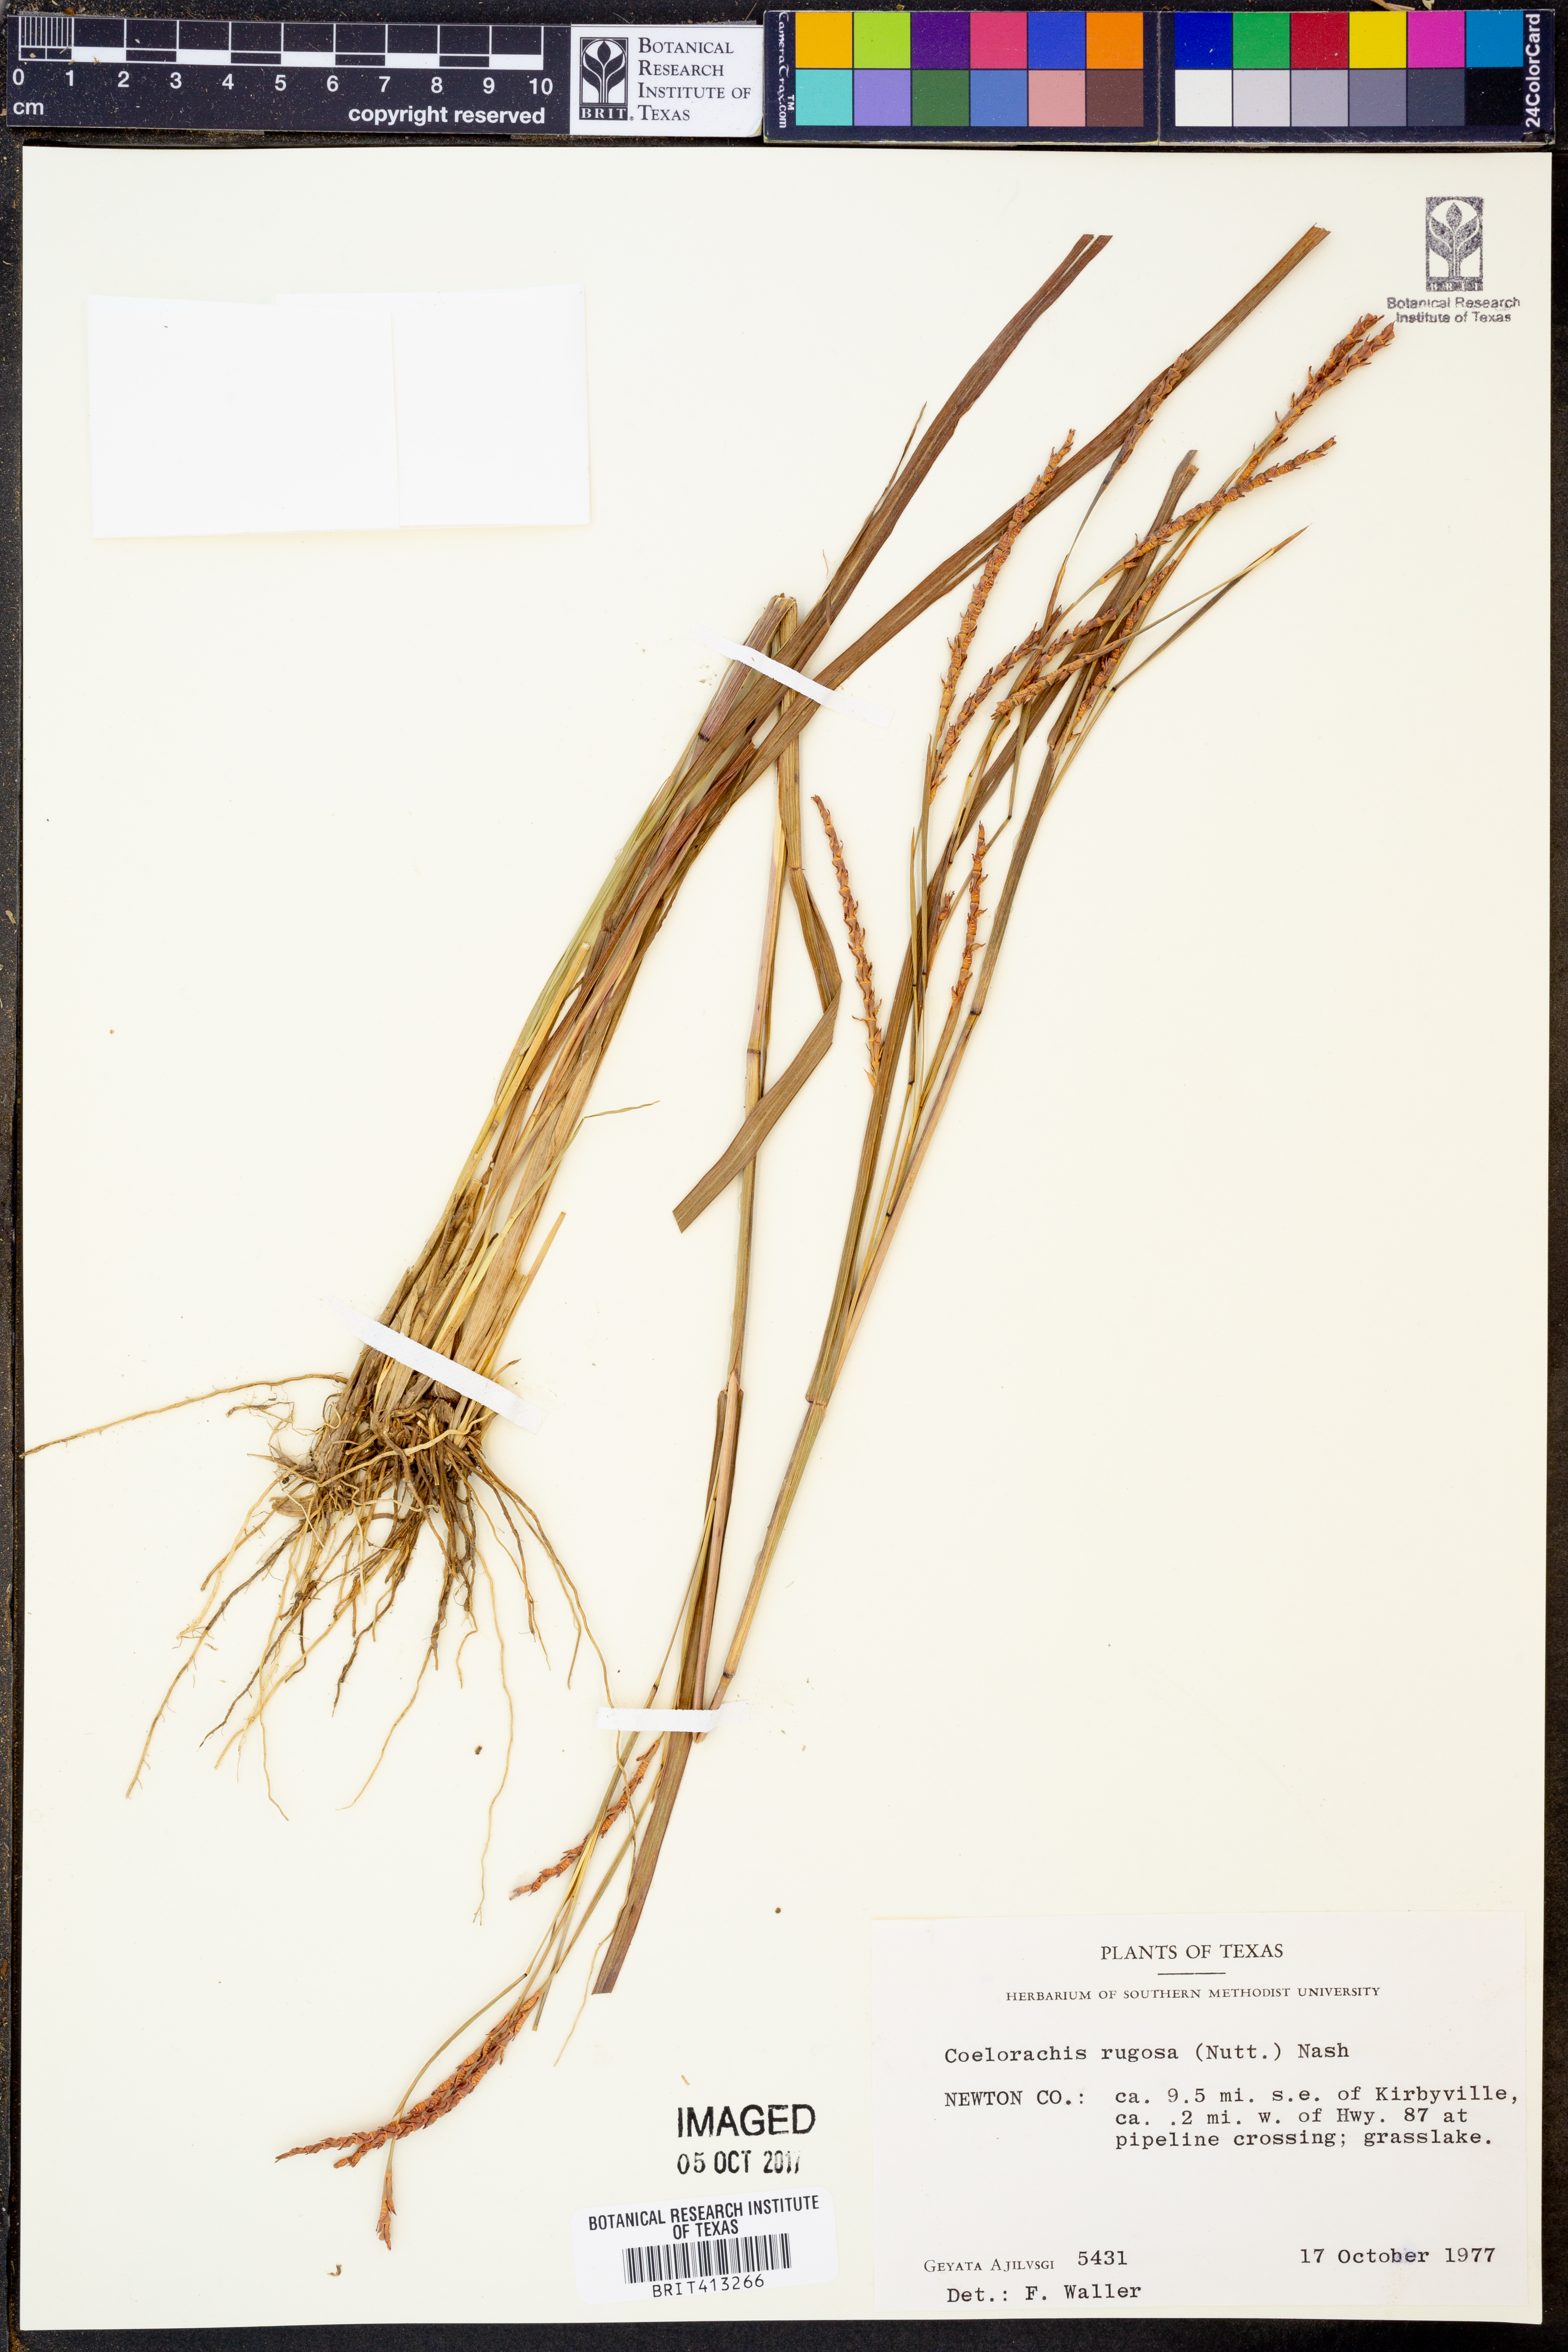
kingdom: Plantae
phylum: Tracheophyta
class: Liliopsida
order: Poales
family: Poaceae
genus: Rottboellia
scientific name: Rottboellia rugosa
